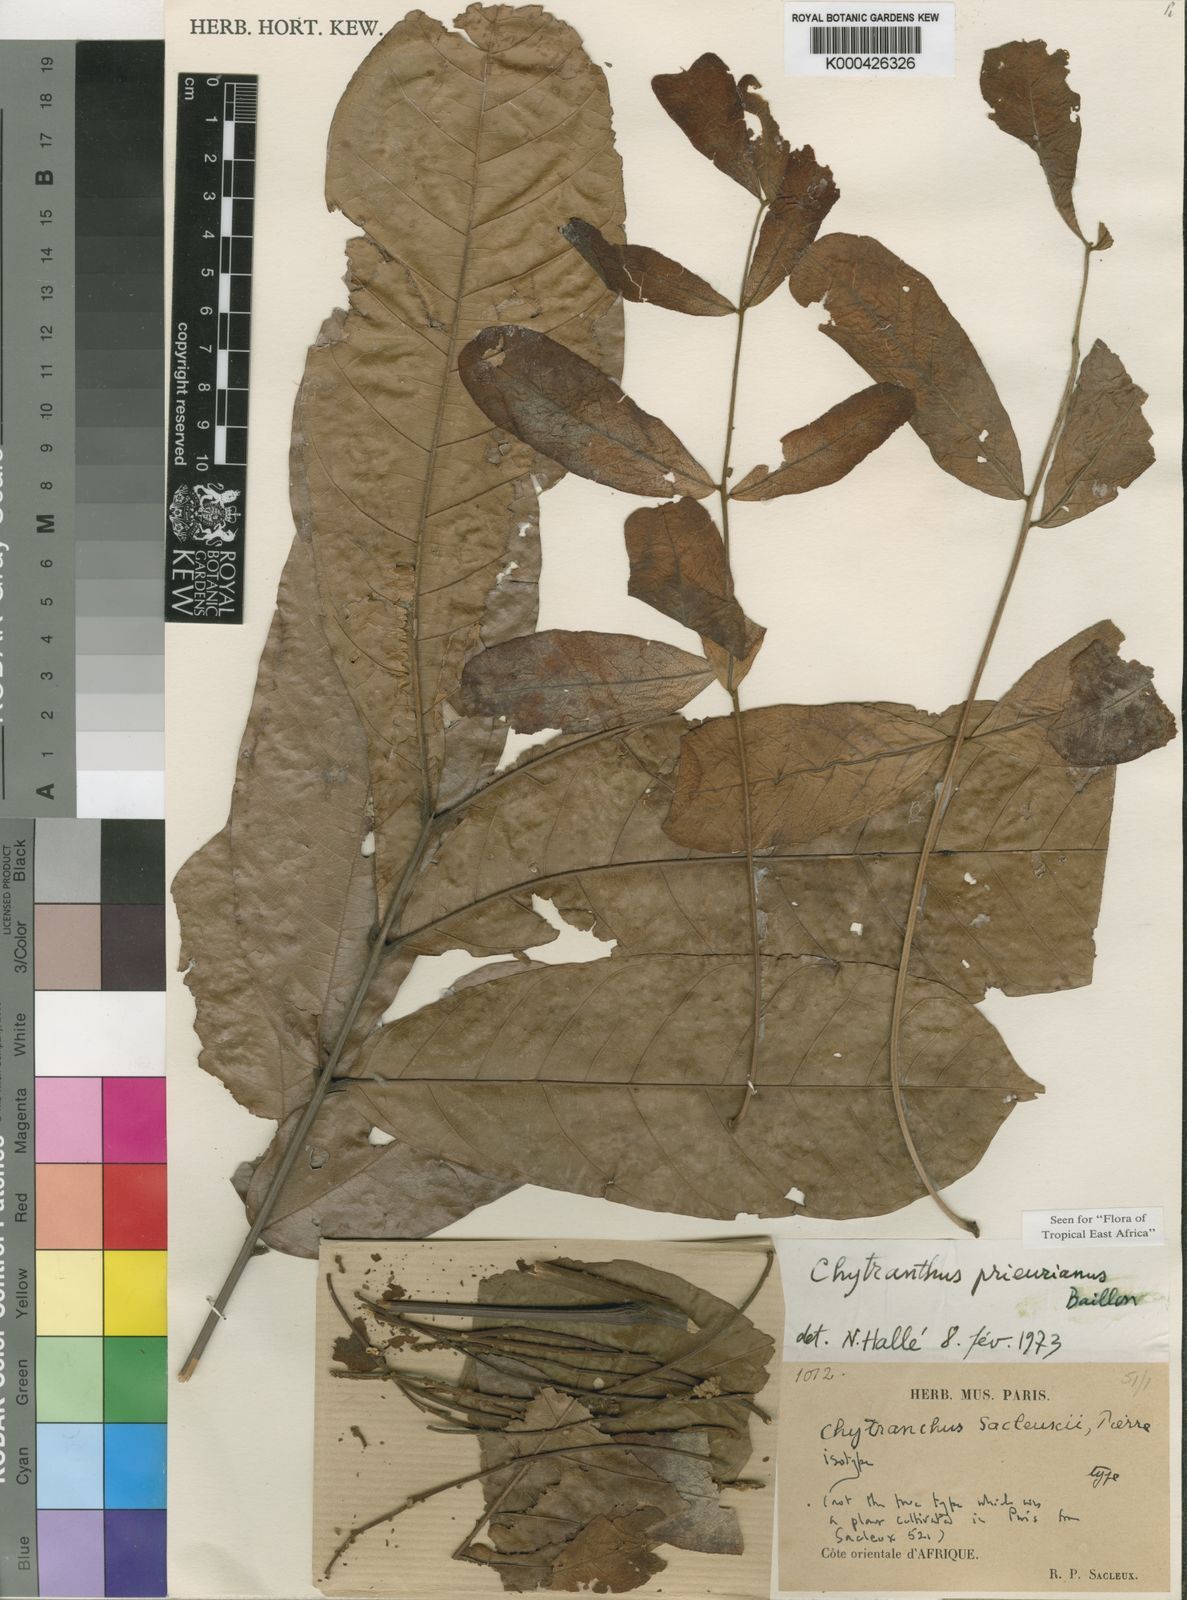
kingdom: Plantae
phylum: Tracheophyta
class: Magnoliopsida
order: Sapindales
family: Sapindaceae
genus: Chytranthus
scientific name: Chytranthus
